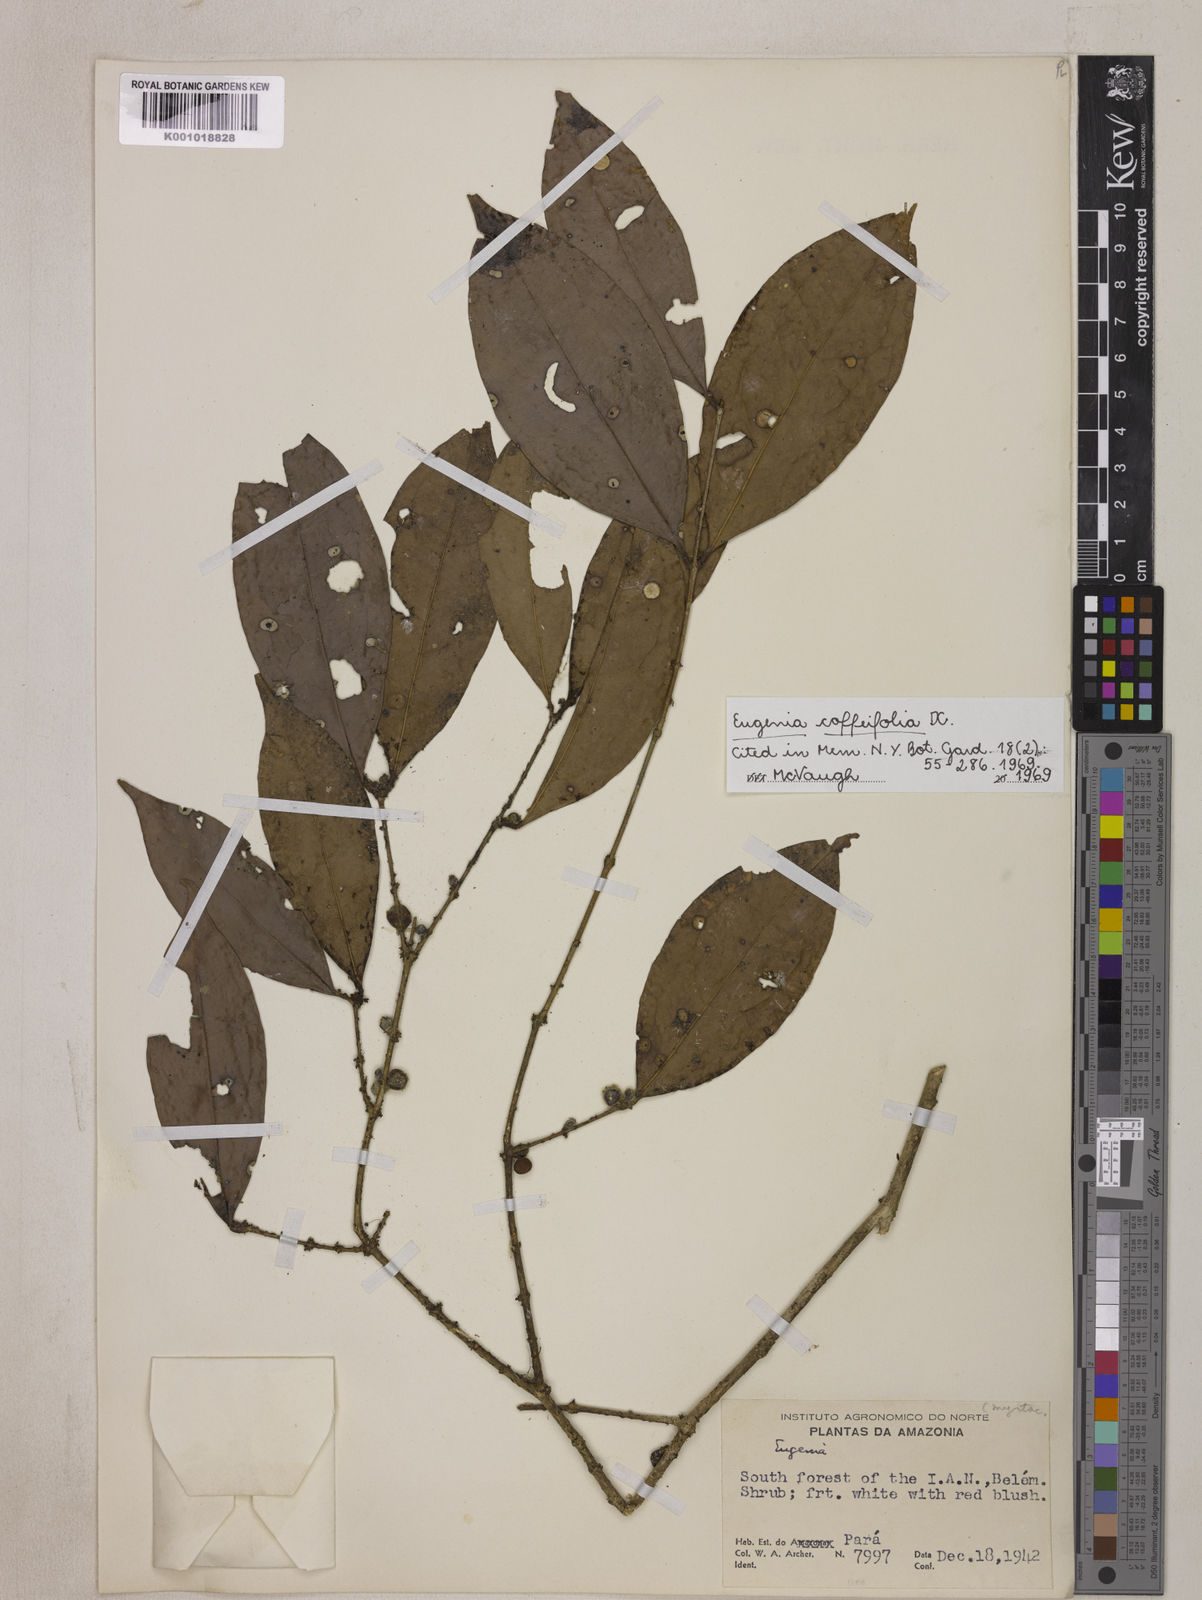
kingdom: Plantae
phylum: Tracheophyta
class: Magnoliopsida
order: Myrtales
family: Myrtaceae
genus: Eugenia
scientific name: Eugenia coffeifolia
